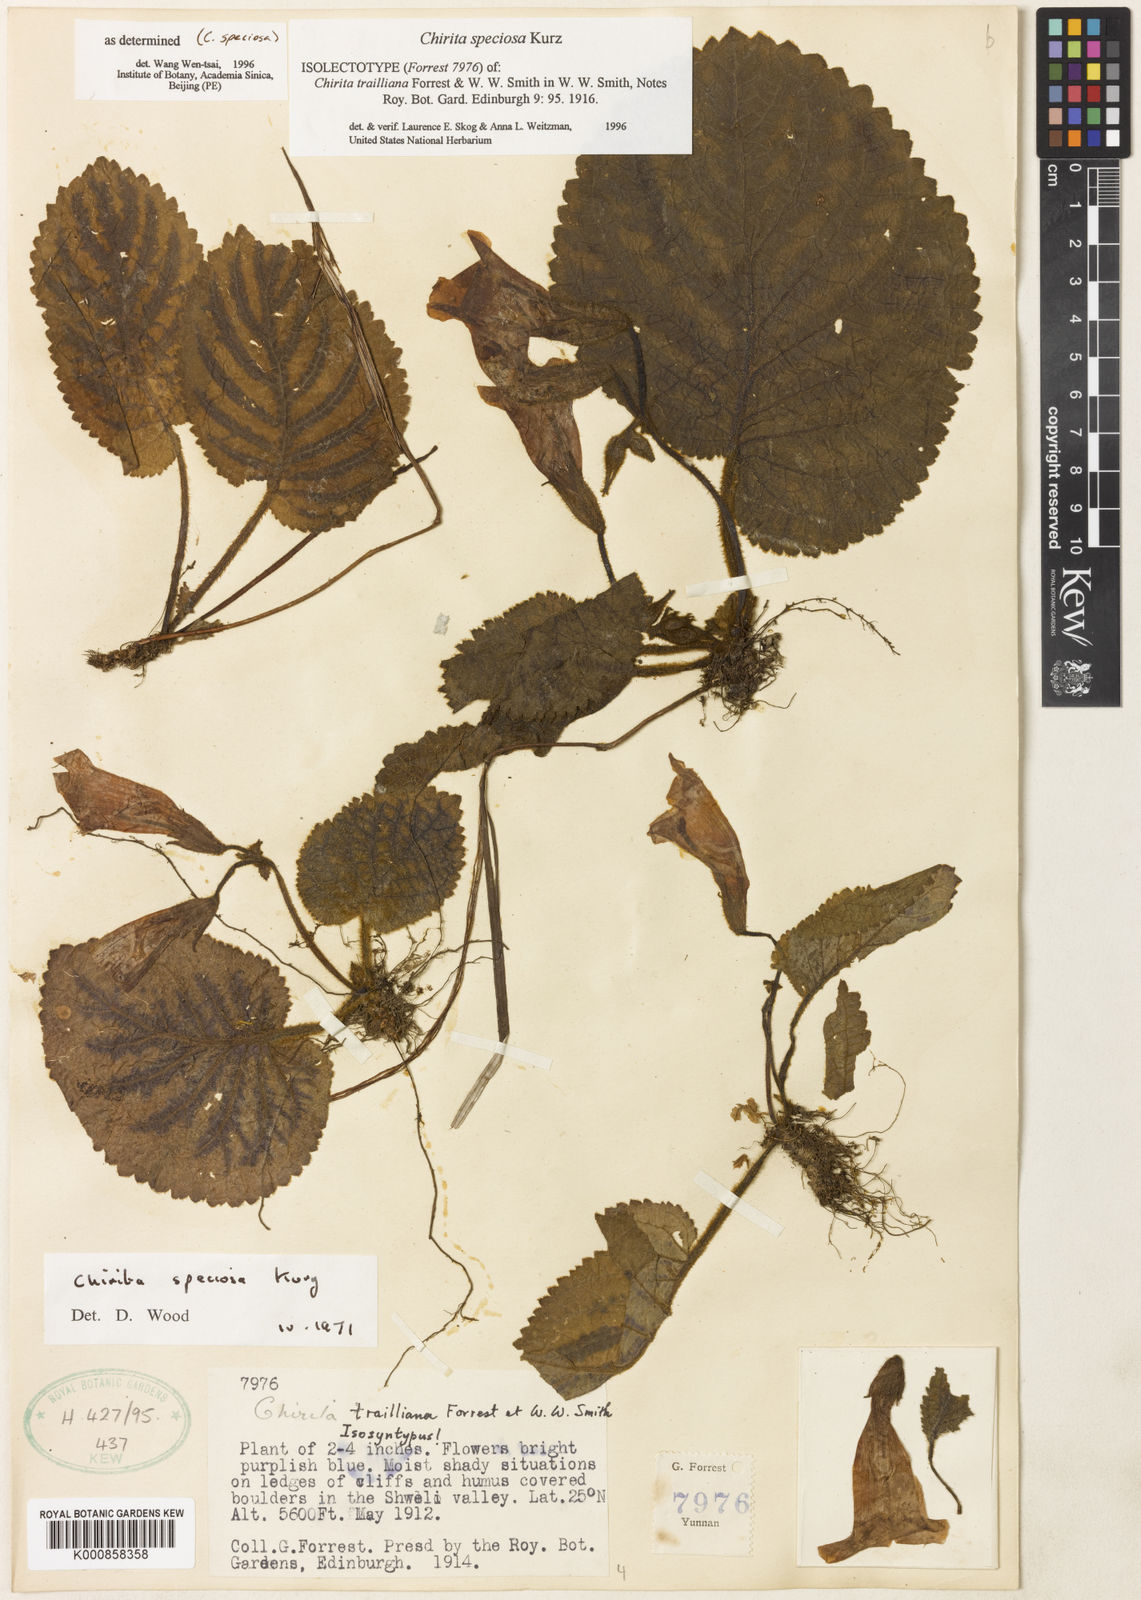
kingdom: Plantae
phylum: Tracheophyta
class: Magnoliopsida
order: Lamiales
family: Gesneriaceae
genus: Henckelia
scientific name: Henckelia speciosa
